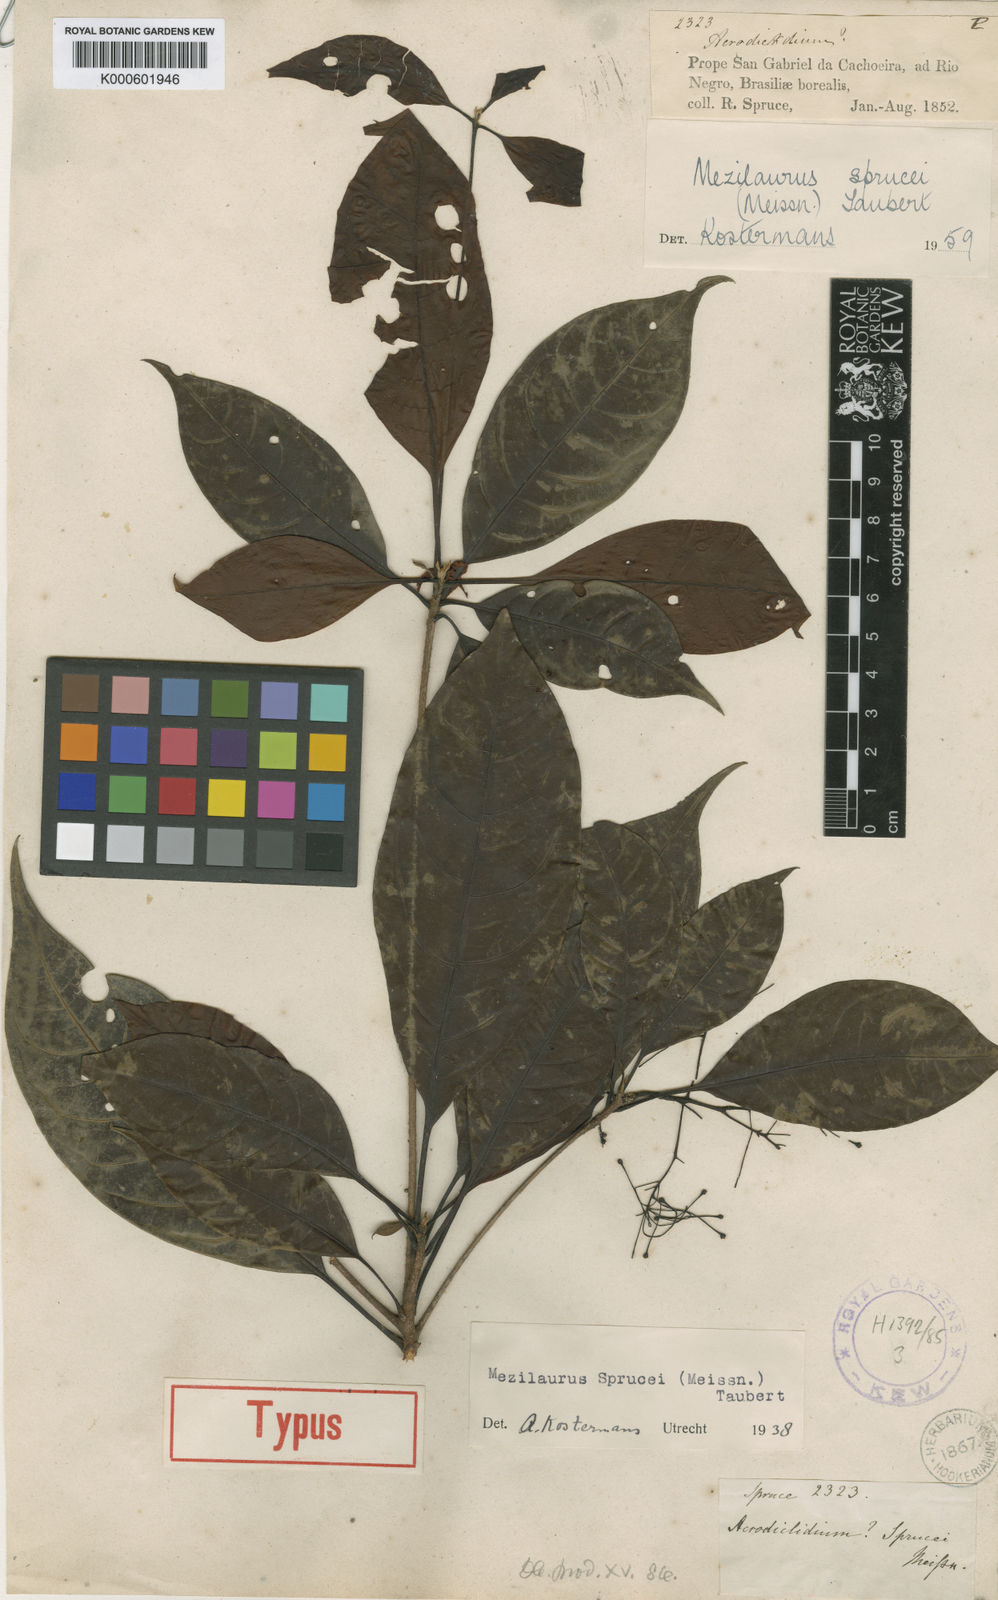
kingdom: Plantae
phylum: Tracheophyta
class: Magnoliopsida
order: Laurales
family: Lauraceae
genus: Mezilaurus
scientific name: Mezilaurus sprucei
